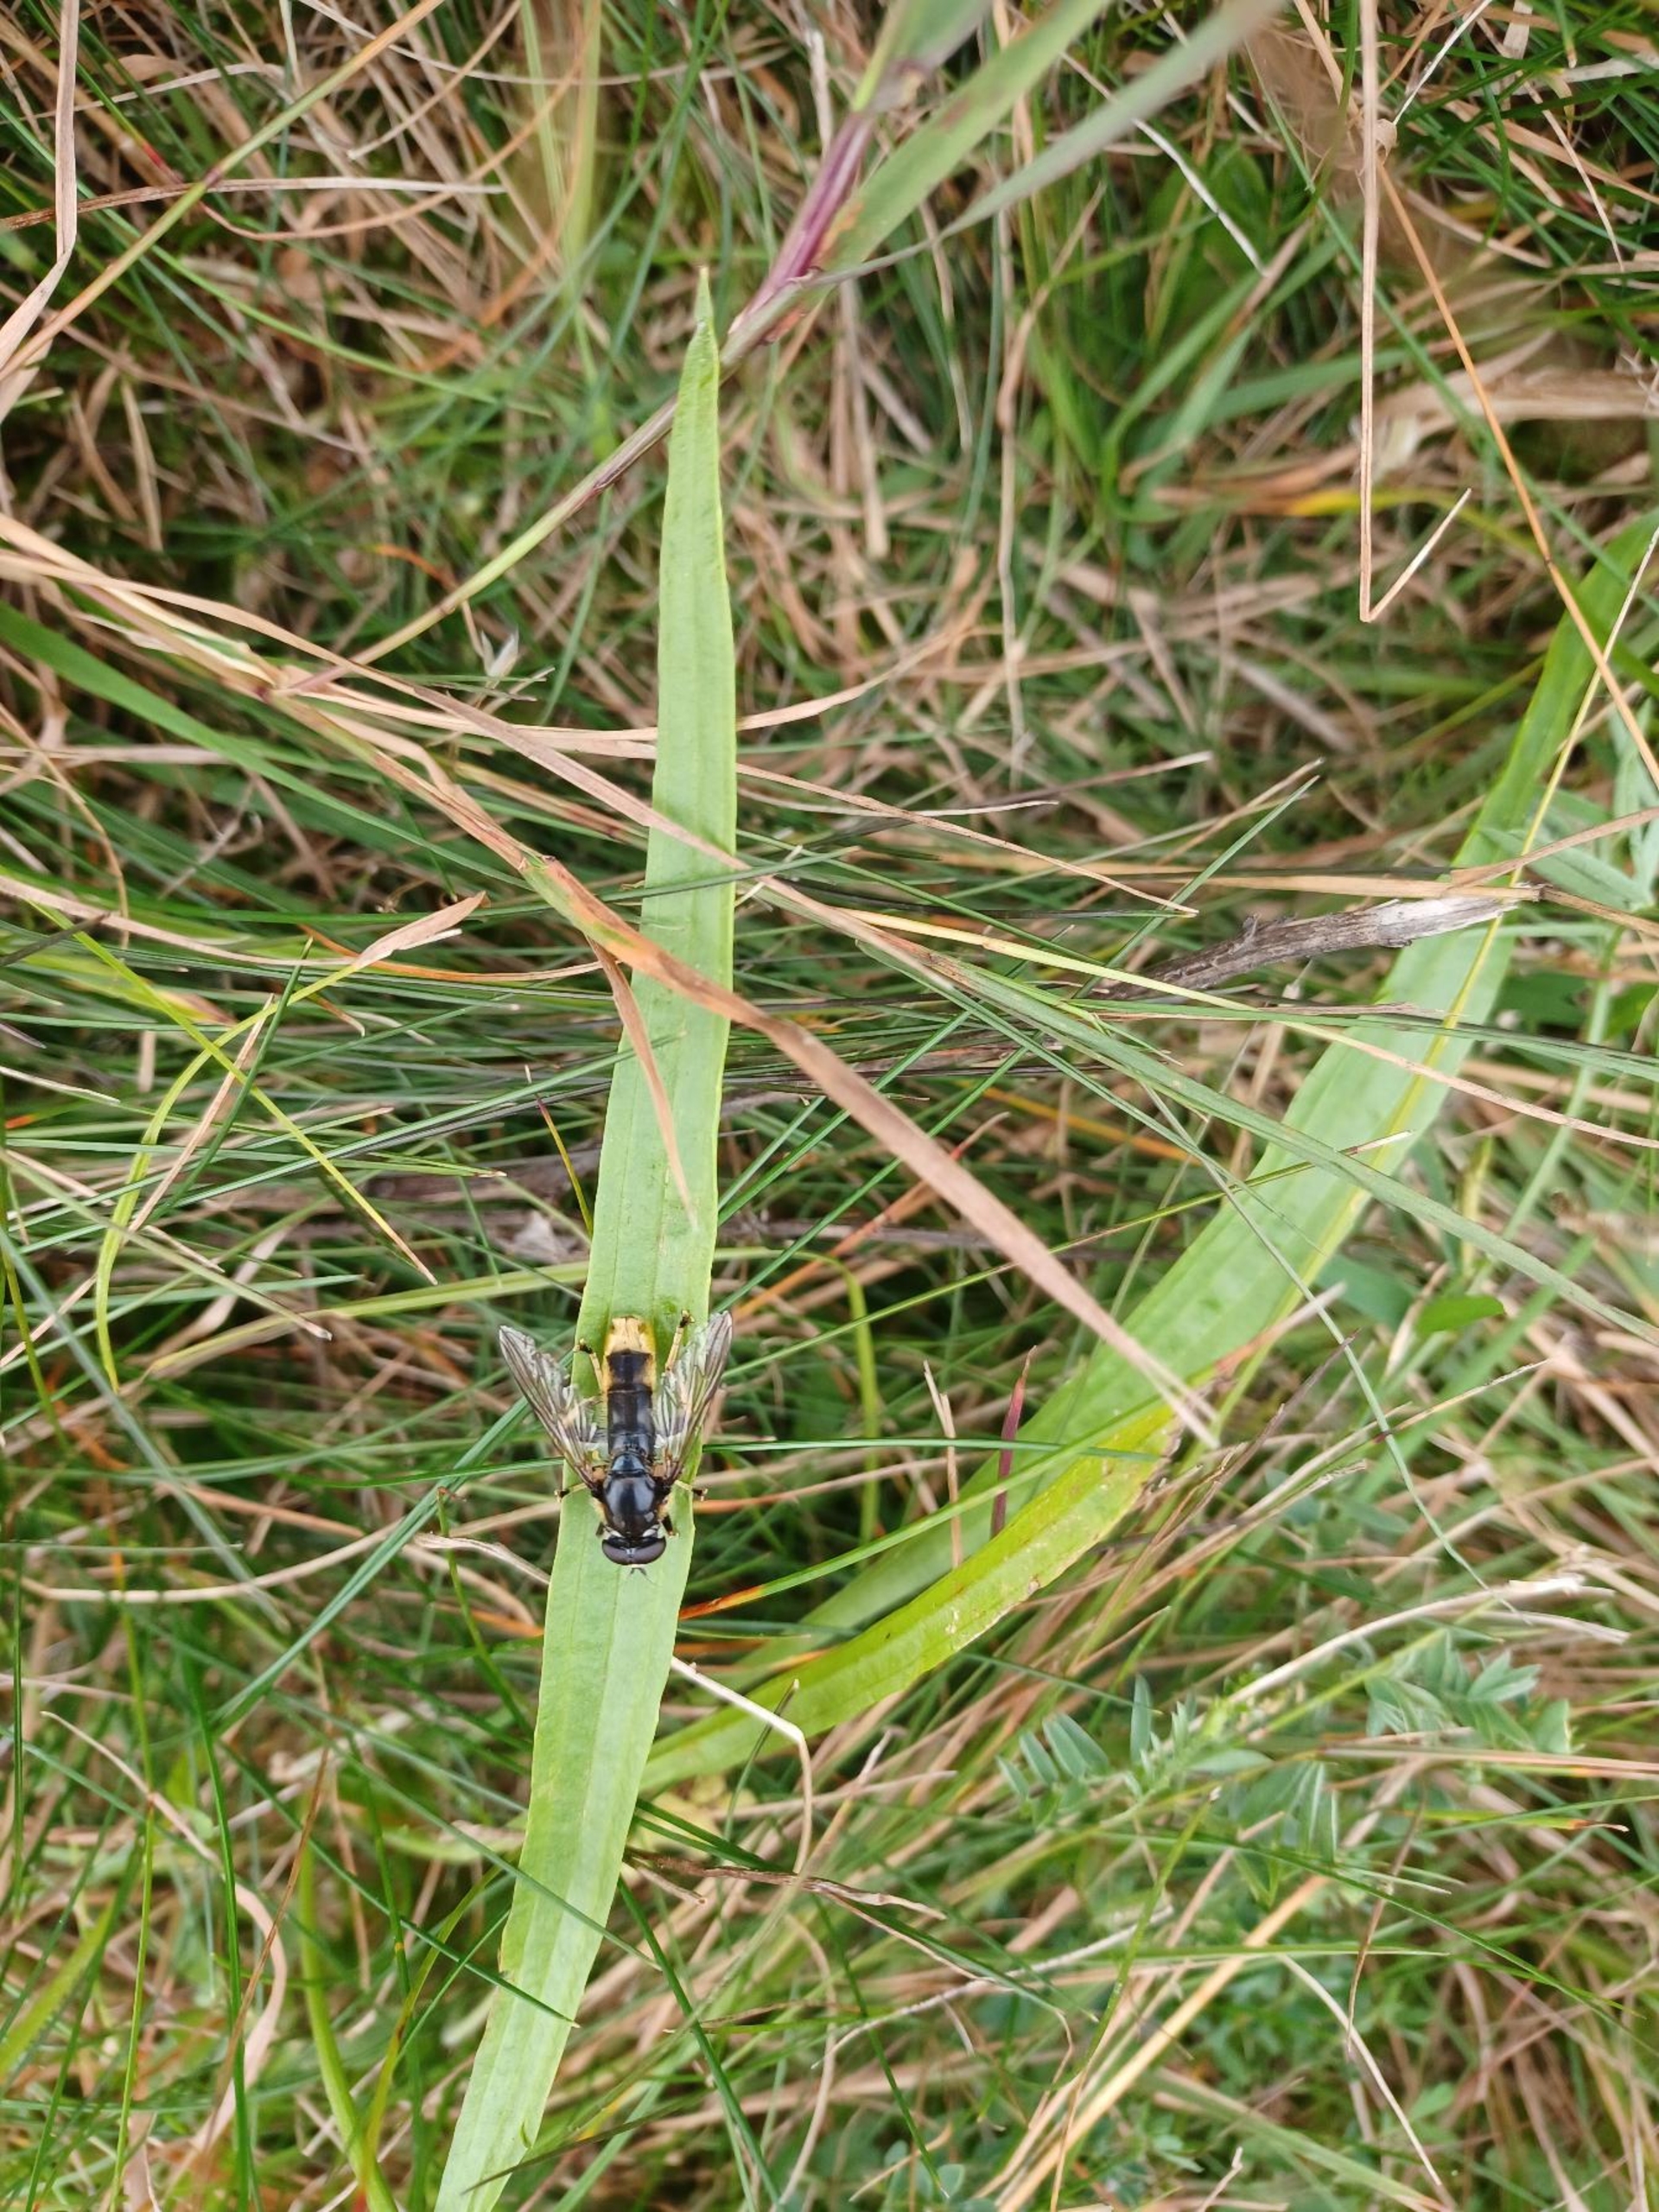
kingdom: Animalia
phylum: Arthropoda
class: Insecta
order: Diptera
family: Syrphidae
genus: Xylota
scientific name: Xylota sylvarum
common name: Guldhåret træsvirreflue
